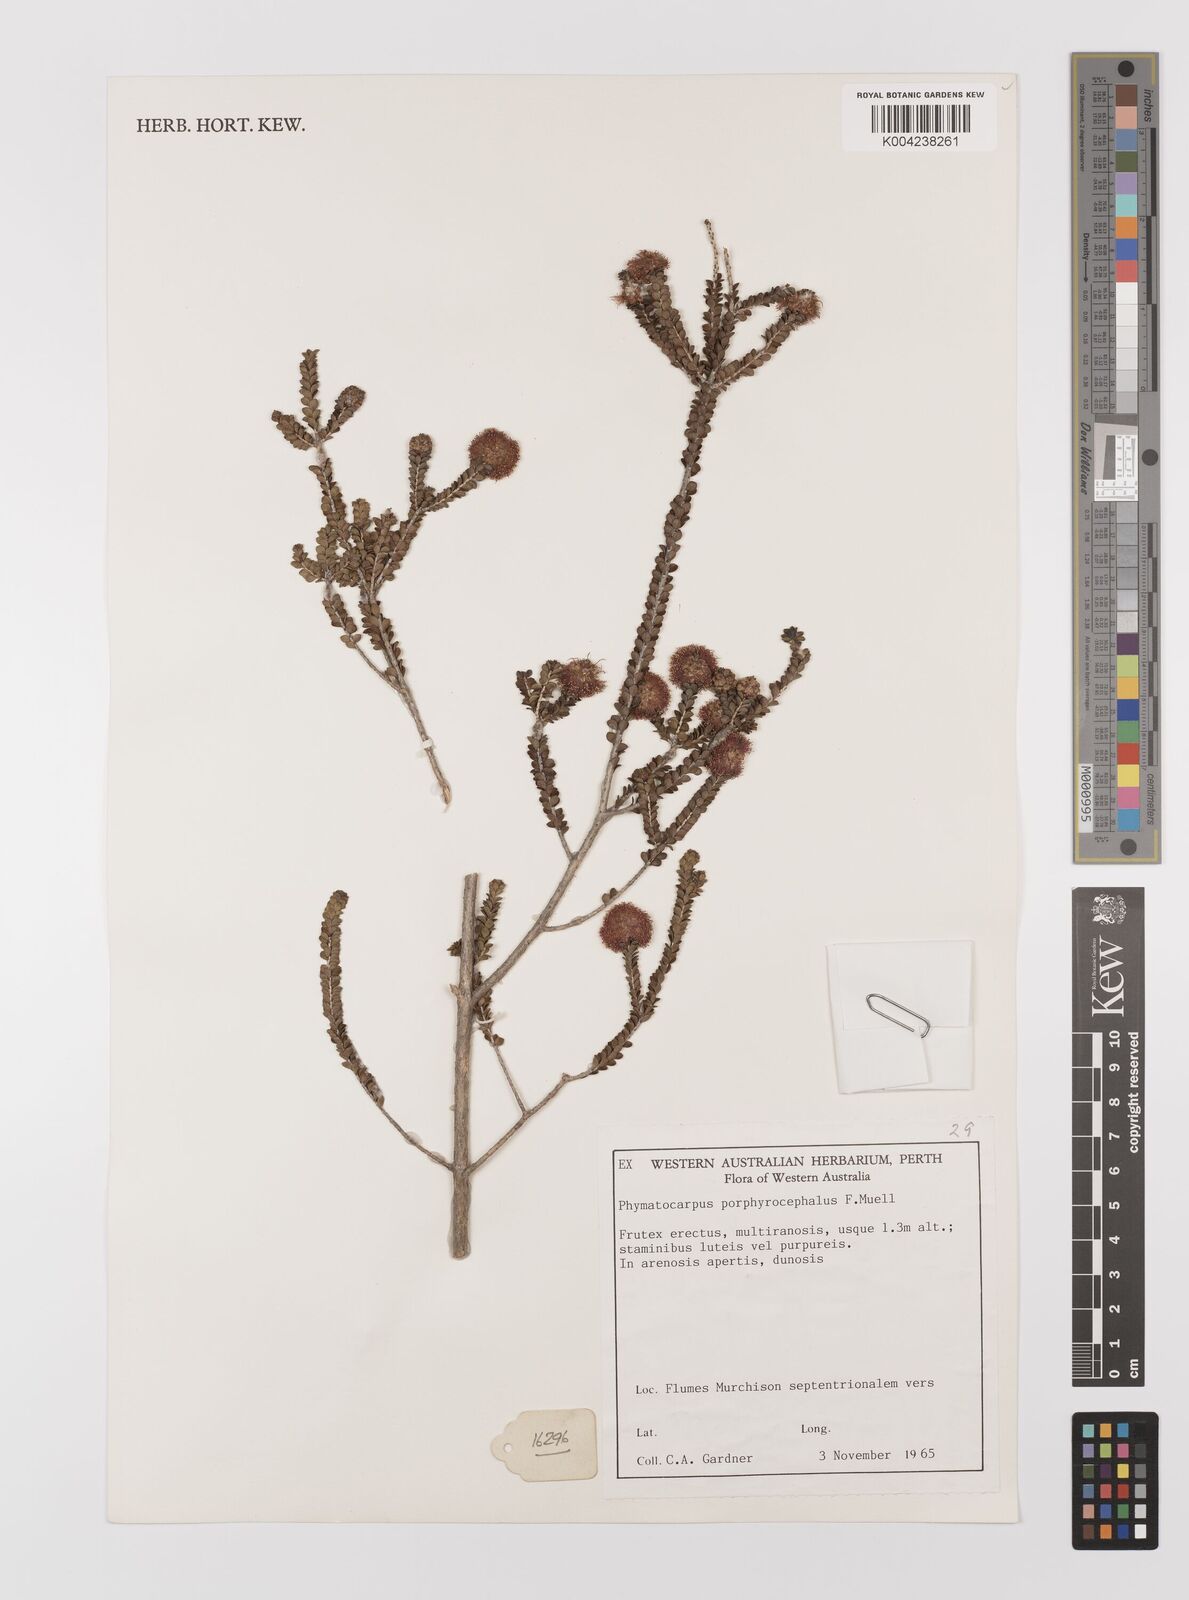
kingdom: Plantae
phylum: Tracheophyta
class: Magnoliopsida
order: Myrtales
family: Myrtaceae
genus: Melaleuca
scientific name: Melaleuca porphyrocephala
